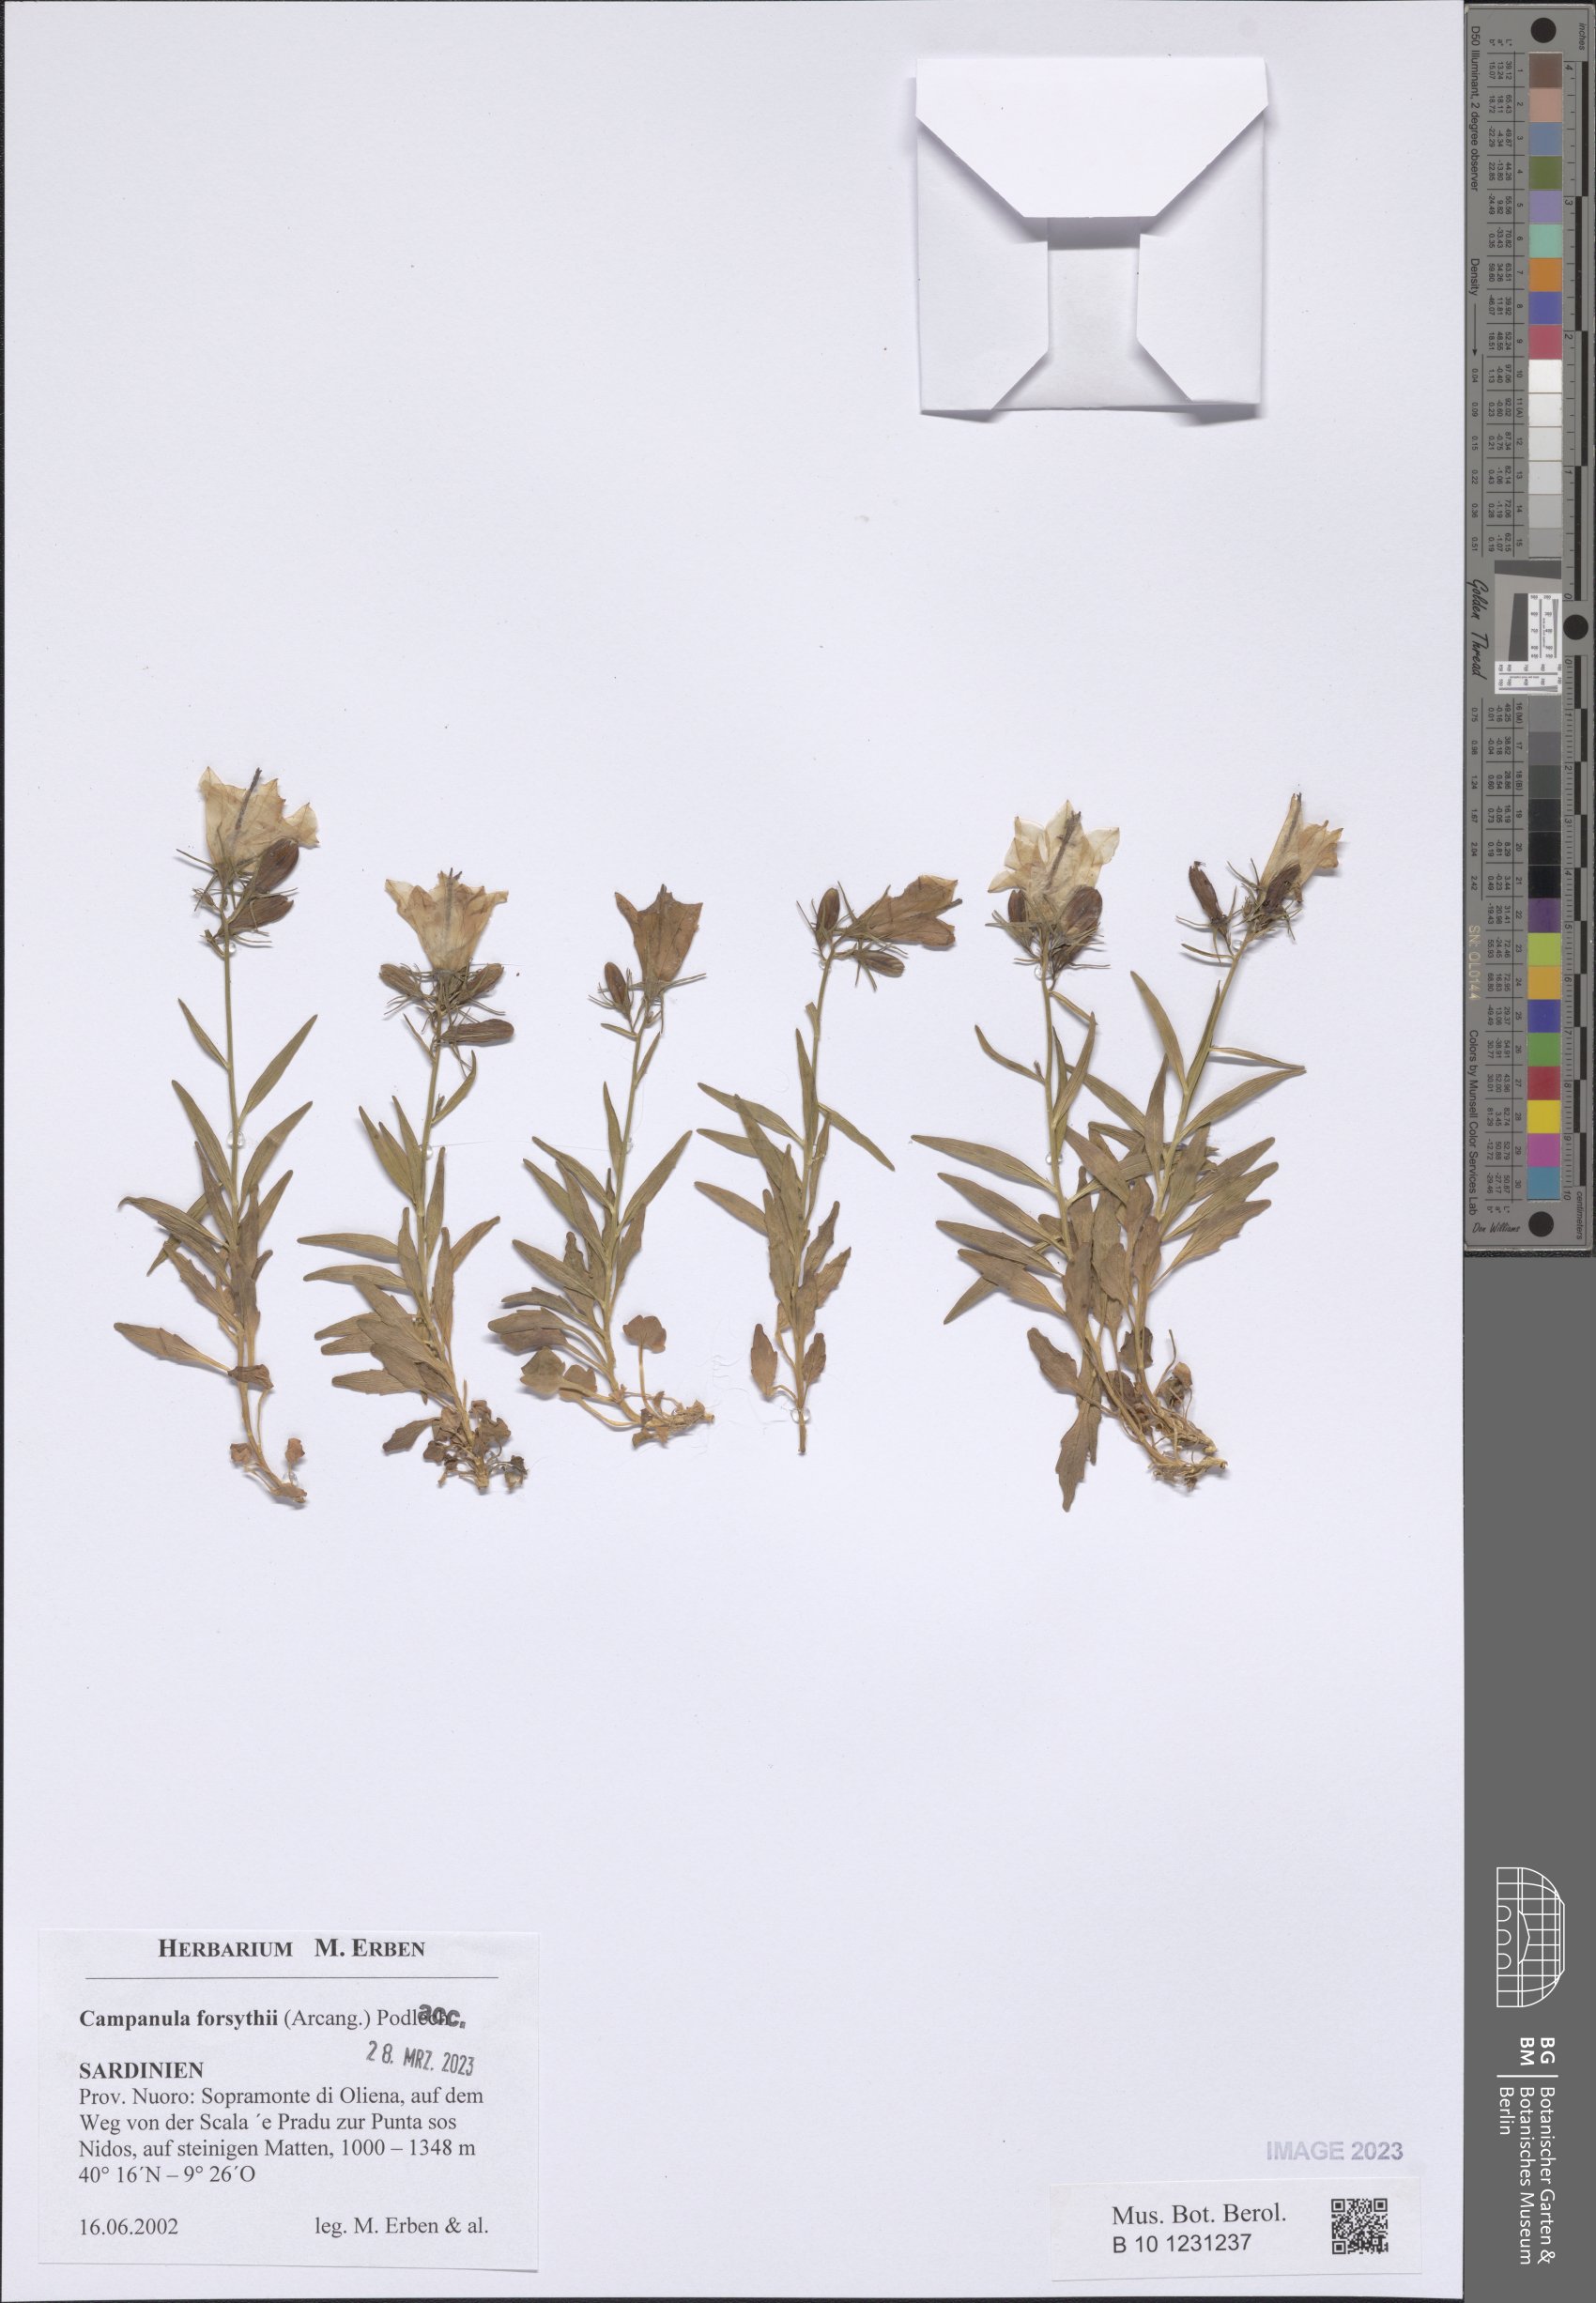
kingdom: Plantae
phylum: Tracheophyta
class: Magnoliopsida
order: Asterales
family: Campanulaceae
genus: Campanula
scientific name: Campanula forsythii
